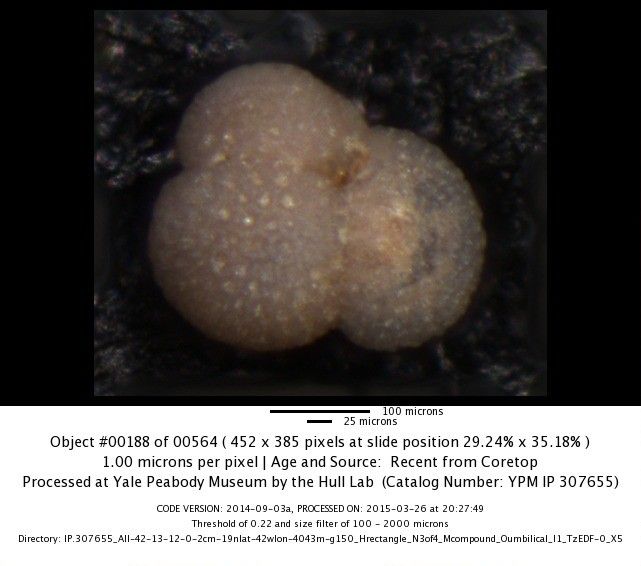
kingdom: Chromista
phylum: Foraminifera
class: Globothalamea
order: Rotaliida
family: Globigerinidae
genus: Globigerinoides
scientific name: Globigerinoides sacculifer
